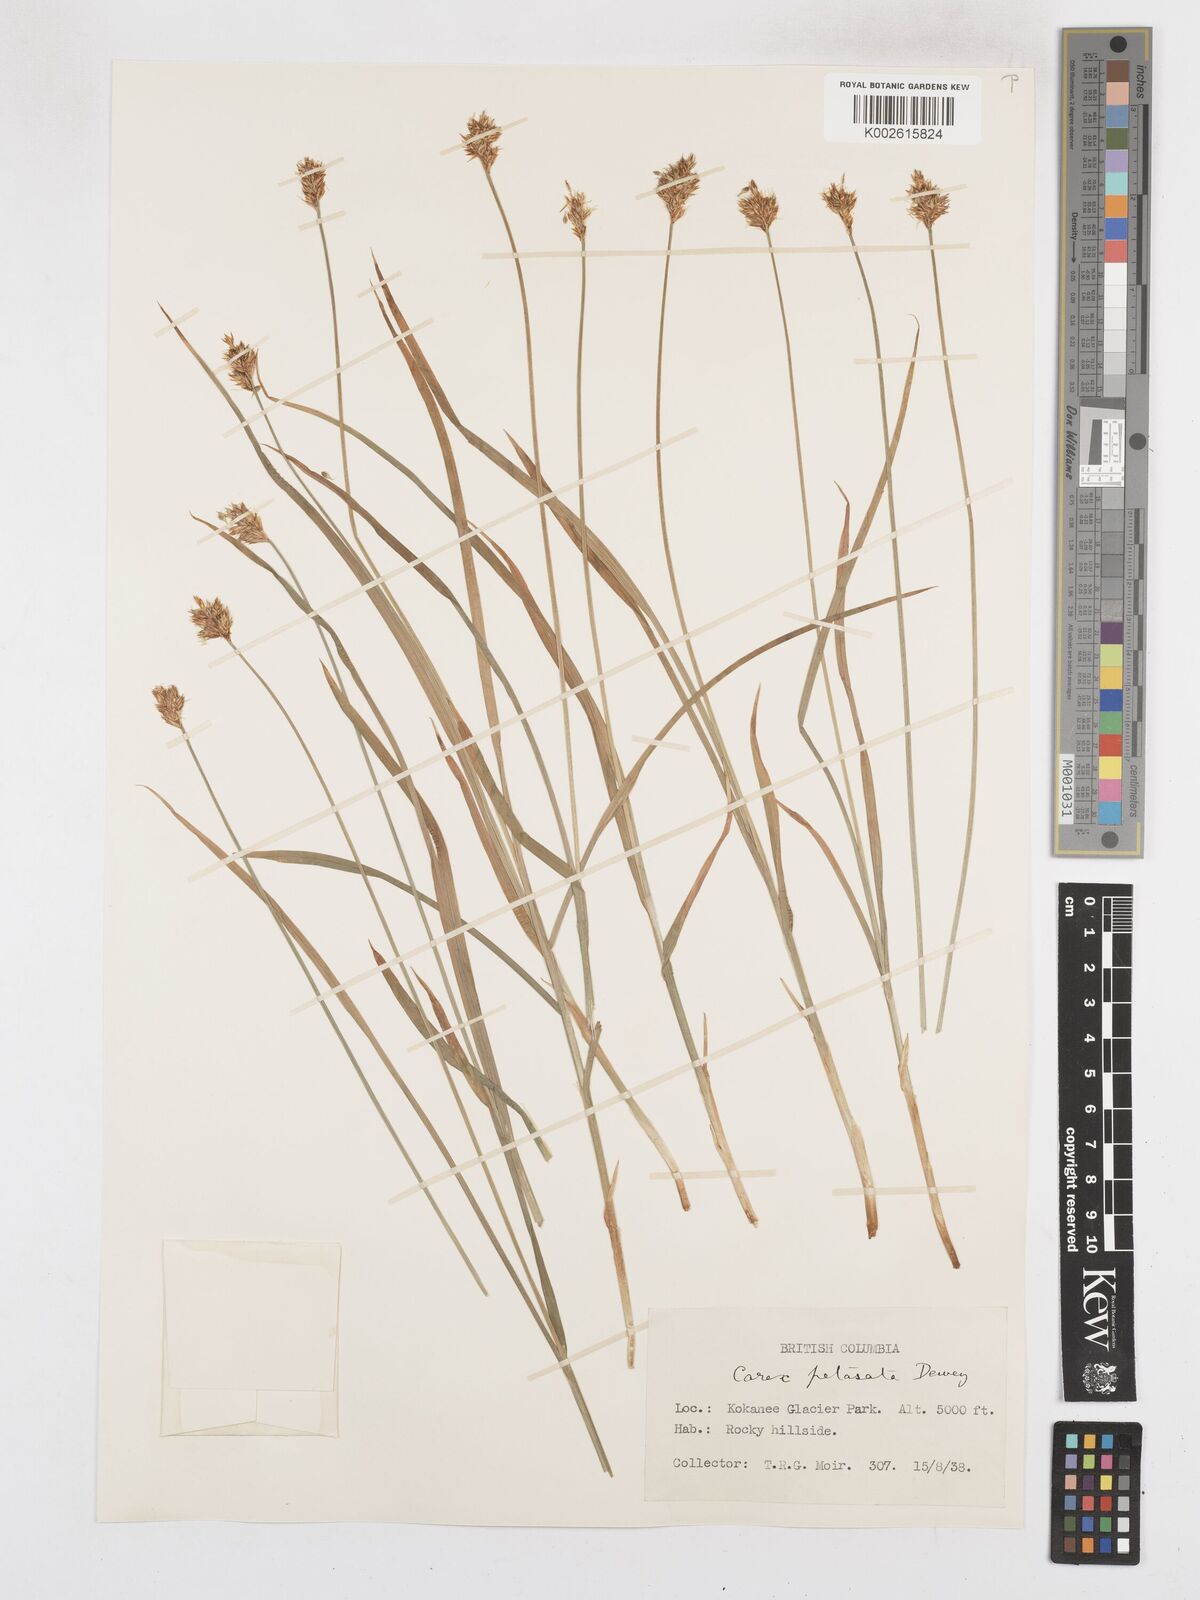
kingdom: Plantae
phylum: Tracheophyta
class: Liliopsida
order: Poales
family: Cyperaceae
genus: Carex
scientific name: Carex petasata
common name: Liddon's sedge
